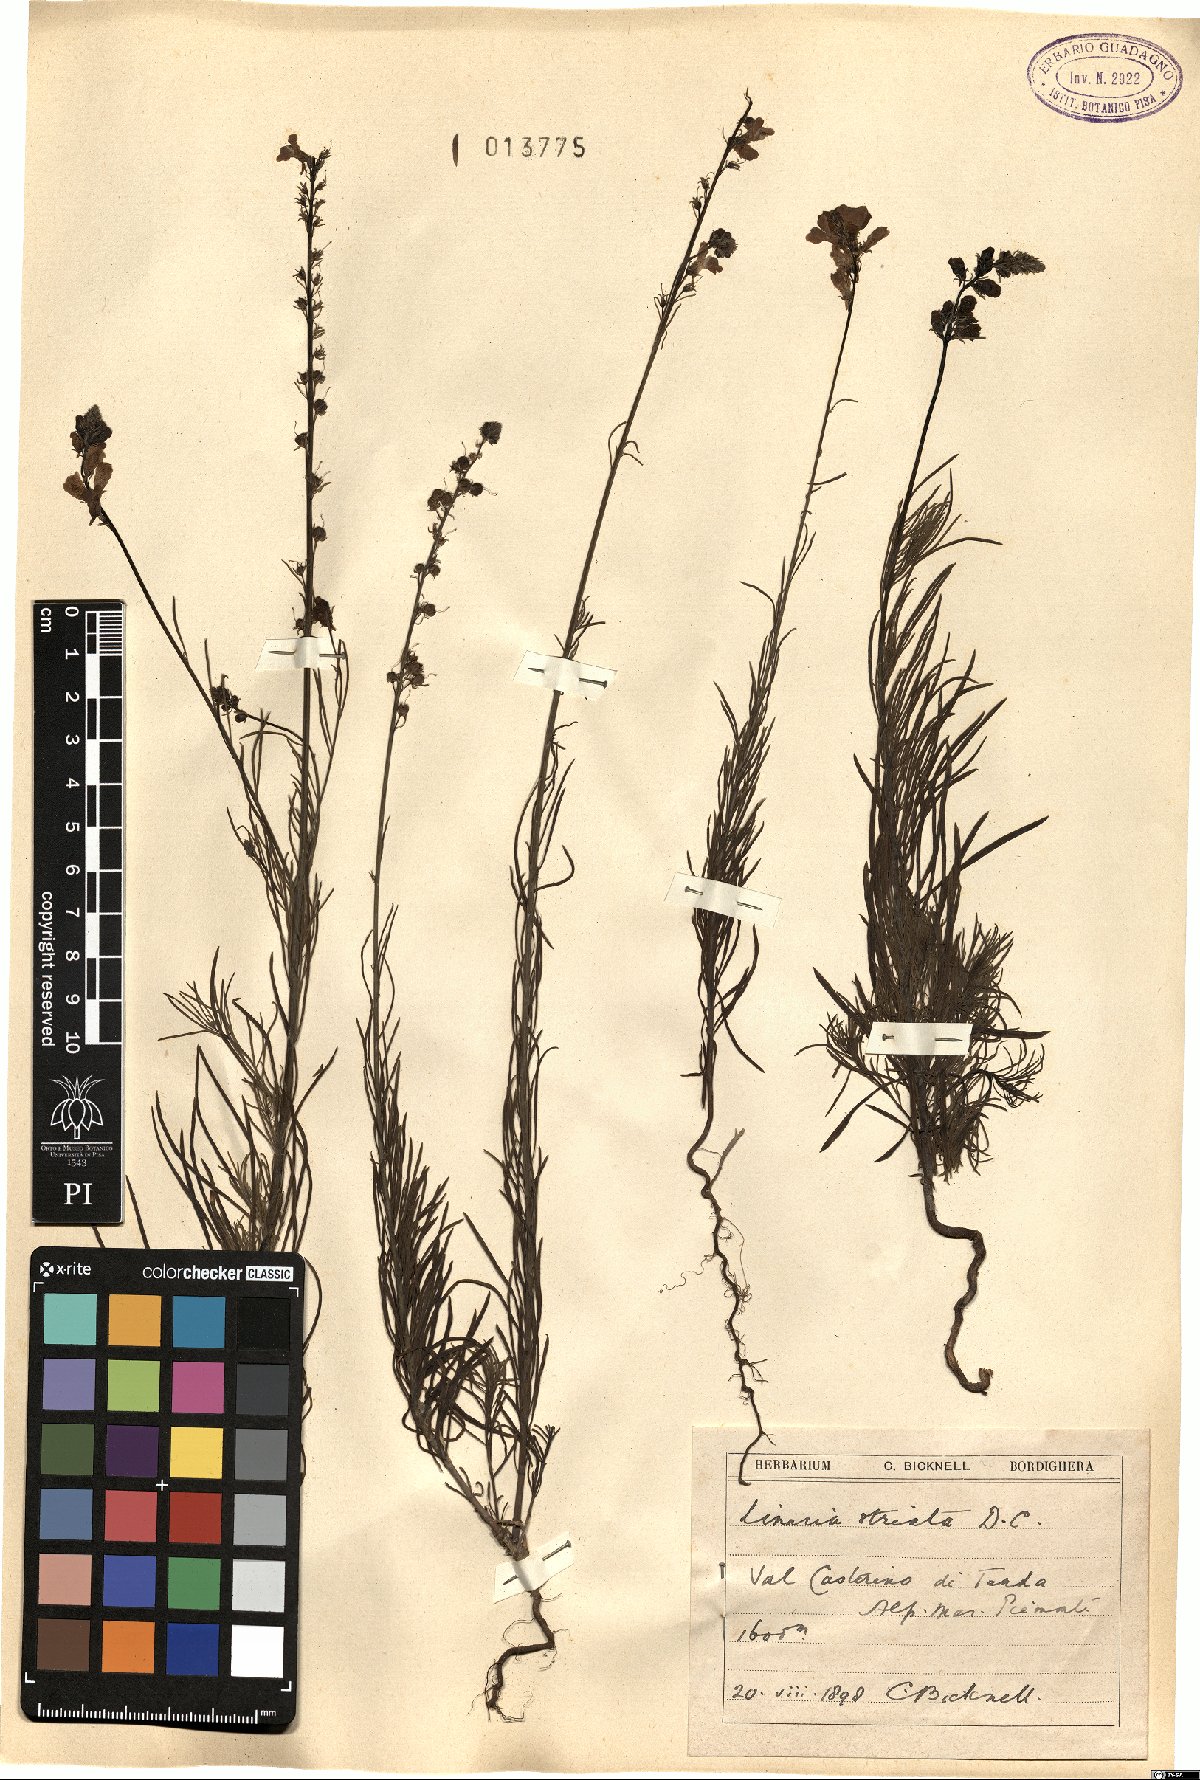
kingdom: Plantae
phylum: Tracheophyta
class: Magnoliopsida
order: Lamiales
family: Plantaginaceae
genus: Linaria
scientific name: Linaria repens
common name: Pale toadflax
